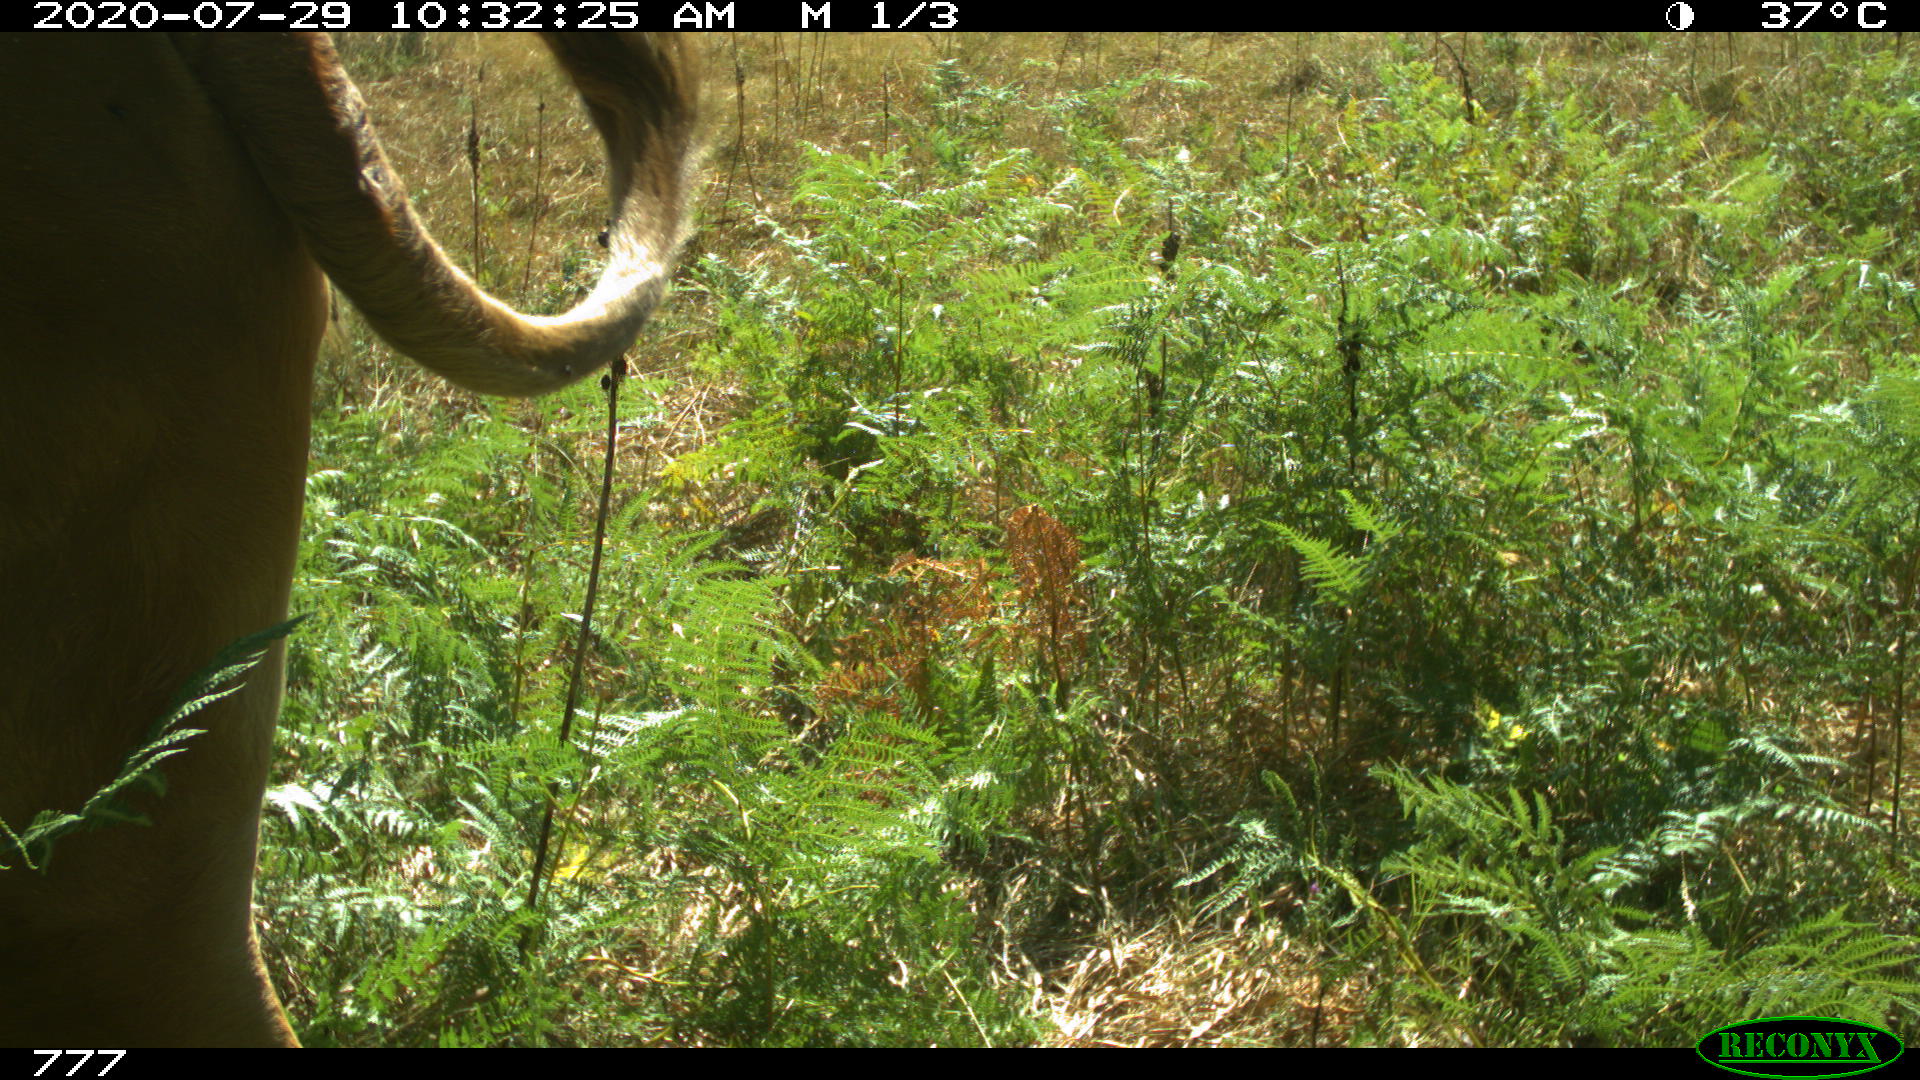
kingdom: Animalia
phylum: Chordata
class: Mammalia
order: Artiodactyla
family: Bovidae
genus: Bos
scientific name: Bos taurus
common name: Domesticated cattle
